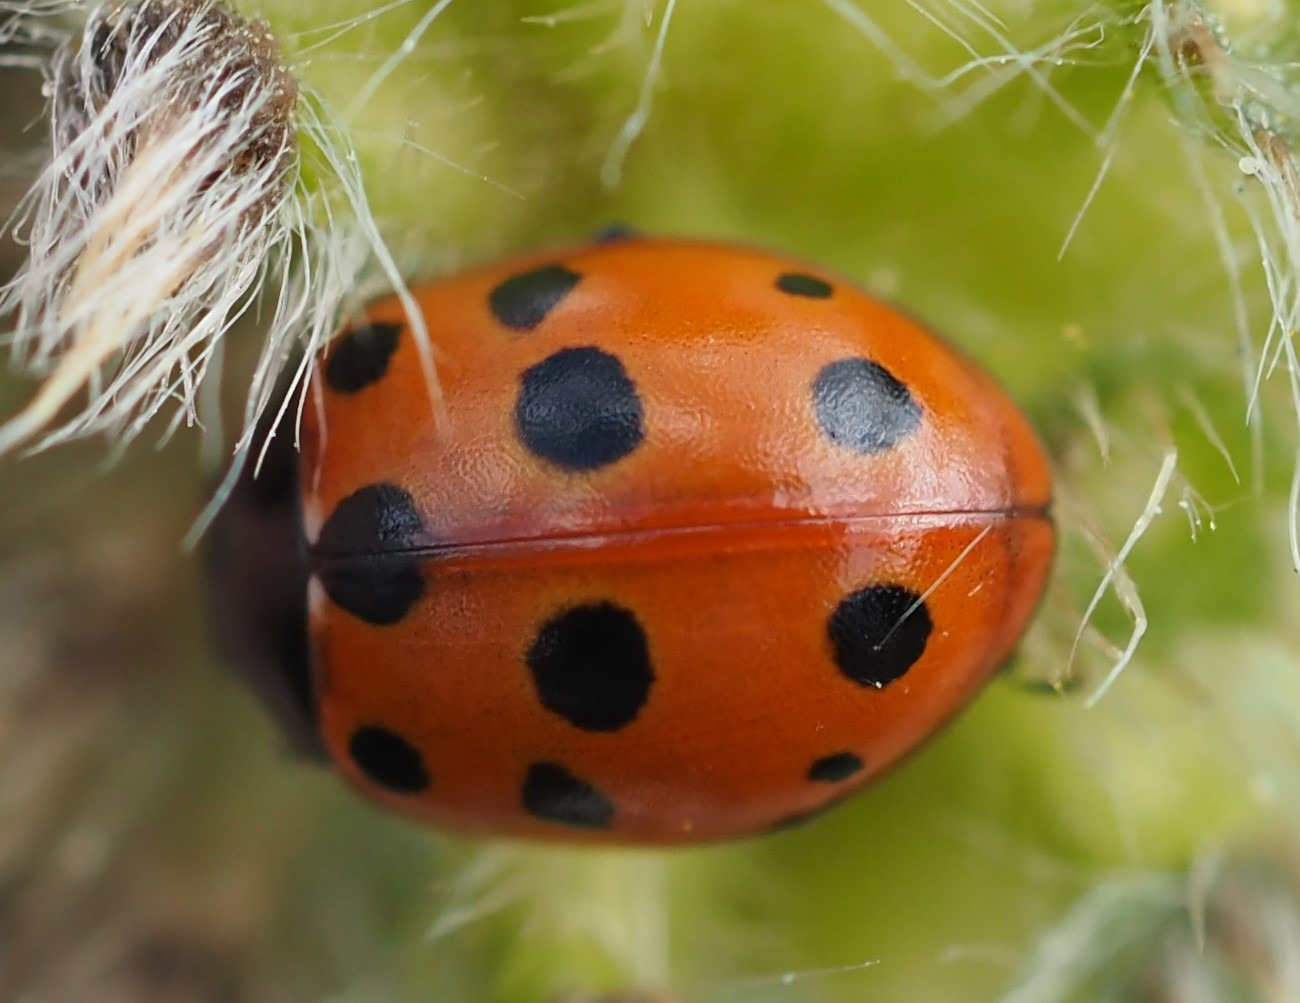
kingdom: Animalia
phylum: Arthropoda
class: Insecta
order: Coleoptera
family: Coccinellidae
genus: Coccinella
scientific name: Coccinella undecimpunctata
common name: Elleveplettet mariehøne
